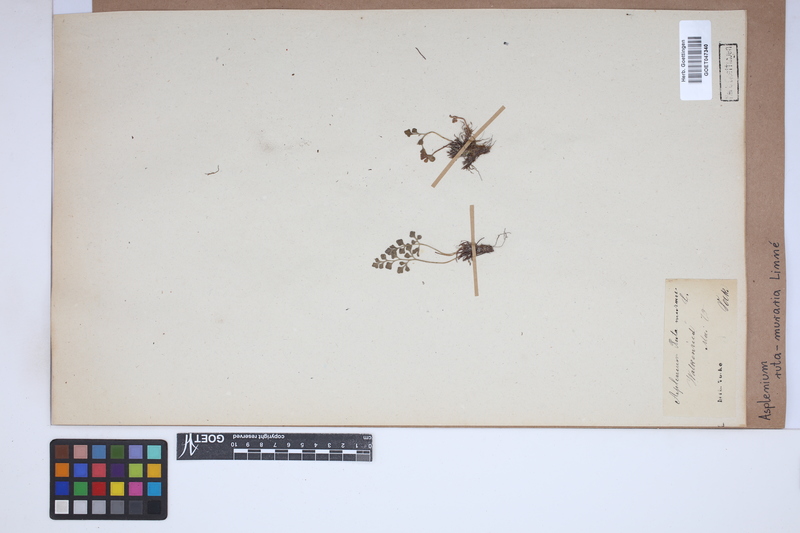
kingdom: Plantae
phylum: Tracheophyta
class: Polypodiopsida
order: Polypodiales
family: Aspleniaceae
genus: Asplenium
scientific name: Asplenium ruta-muraria
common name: Wall-rue
